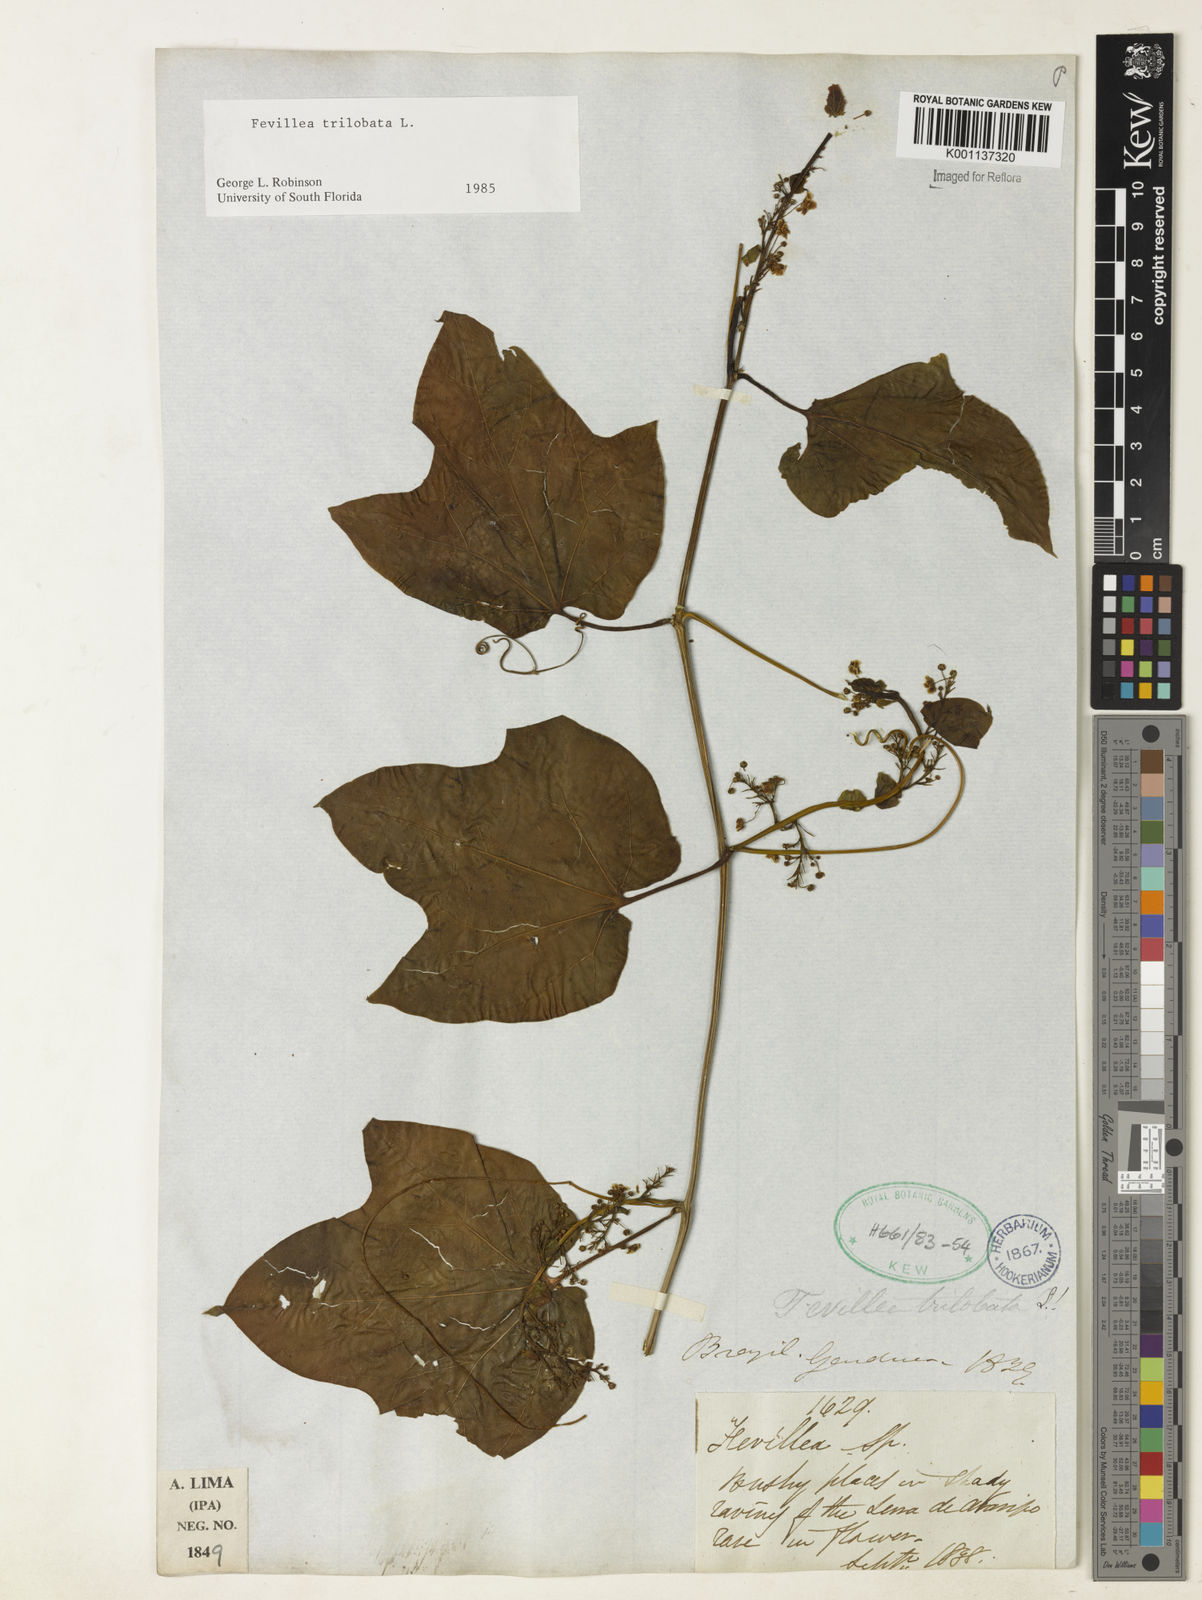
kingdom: Plantae
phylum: Tracheophyta
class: Magnoliopsida
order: Cucurbitales
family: Cucurbitaceae
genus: Fevillea
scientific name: Fevillea trilobata
